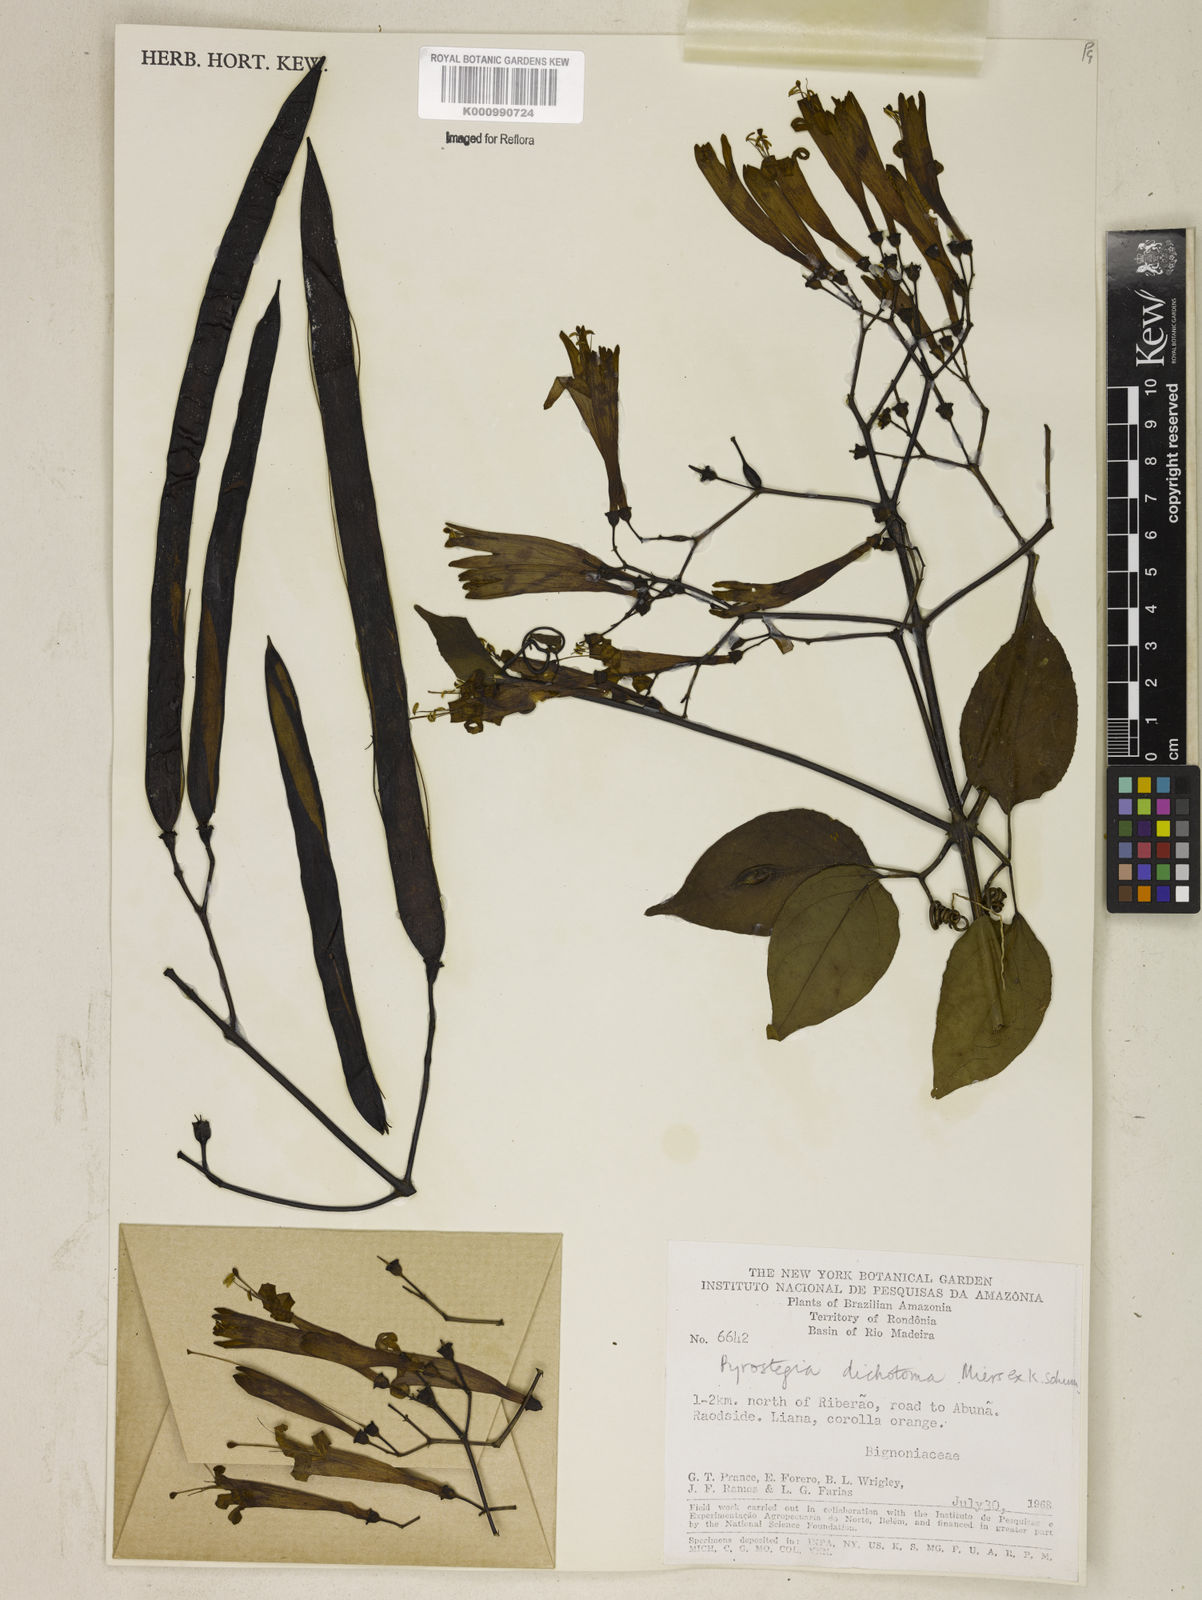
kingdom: Plantae
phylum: Tracheophyta
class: Magnoliopsida
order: Lamiales
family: Bignoniaceae
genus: Pyrostegia
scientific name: Pyrostegia
